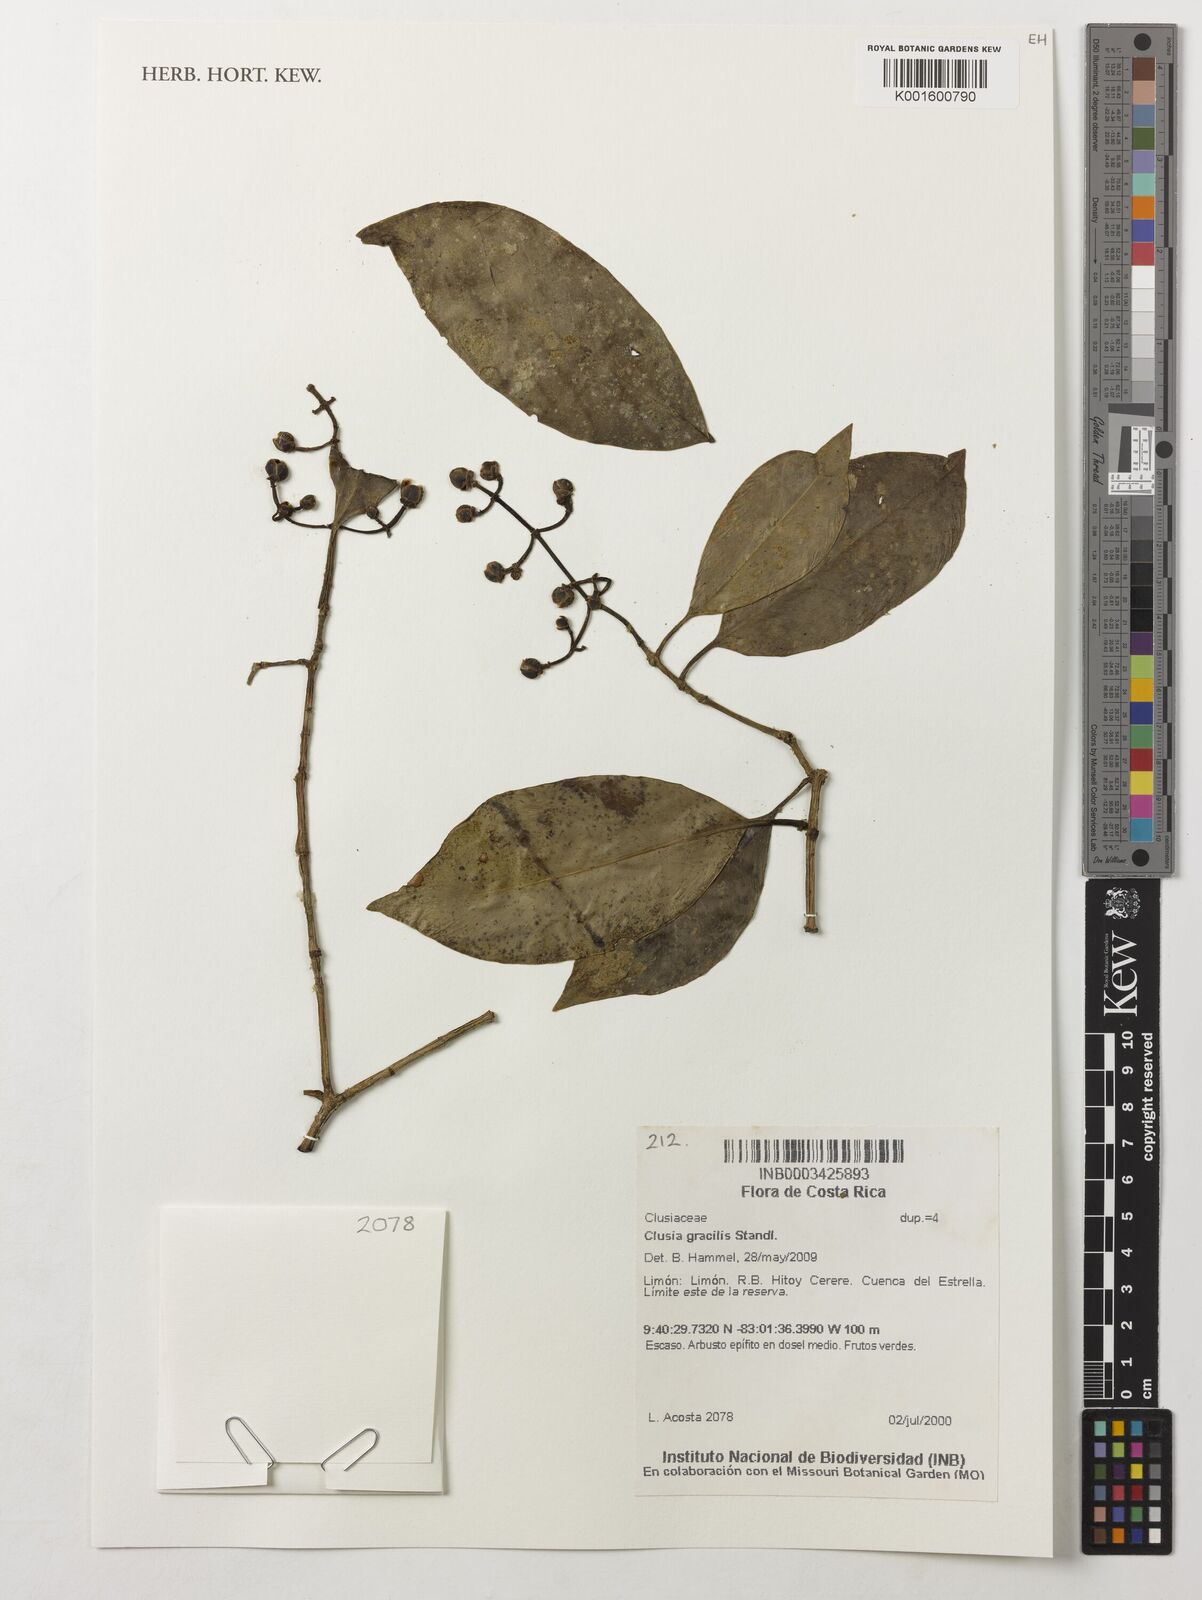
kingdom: Plantae
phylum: Tracheophyta
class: Magnoliopsida
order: Malpighiales
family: Clusiaceae
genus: Clusia
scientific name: Clusia gracilis
